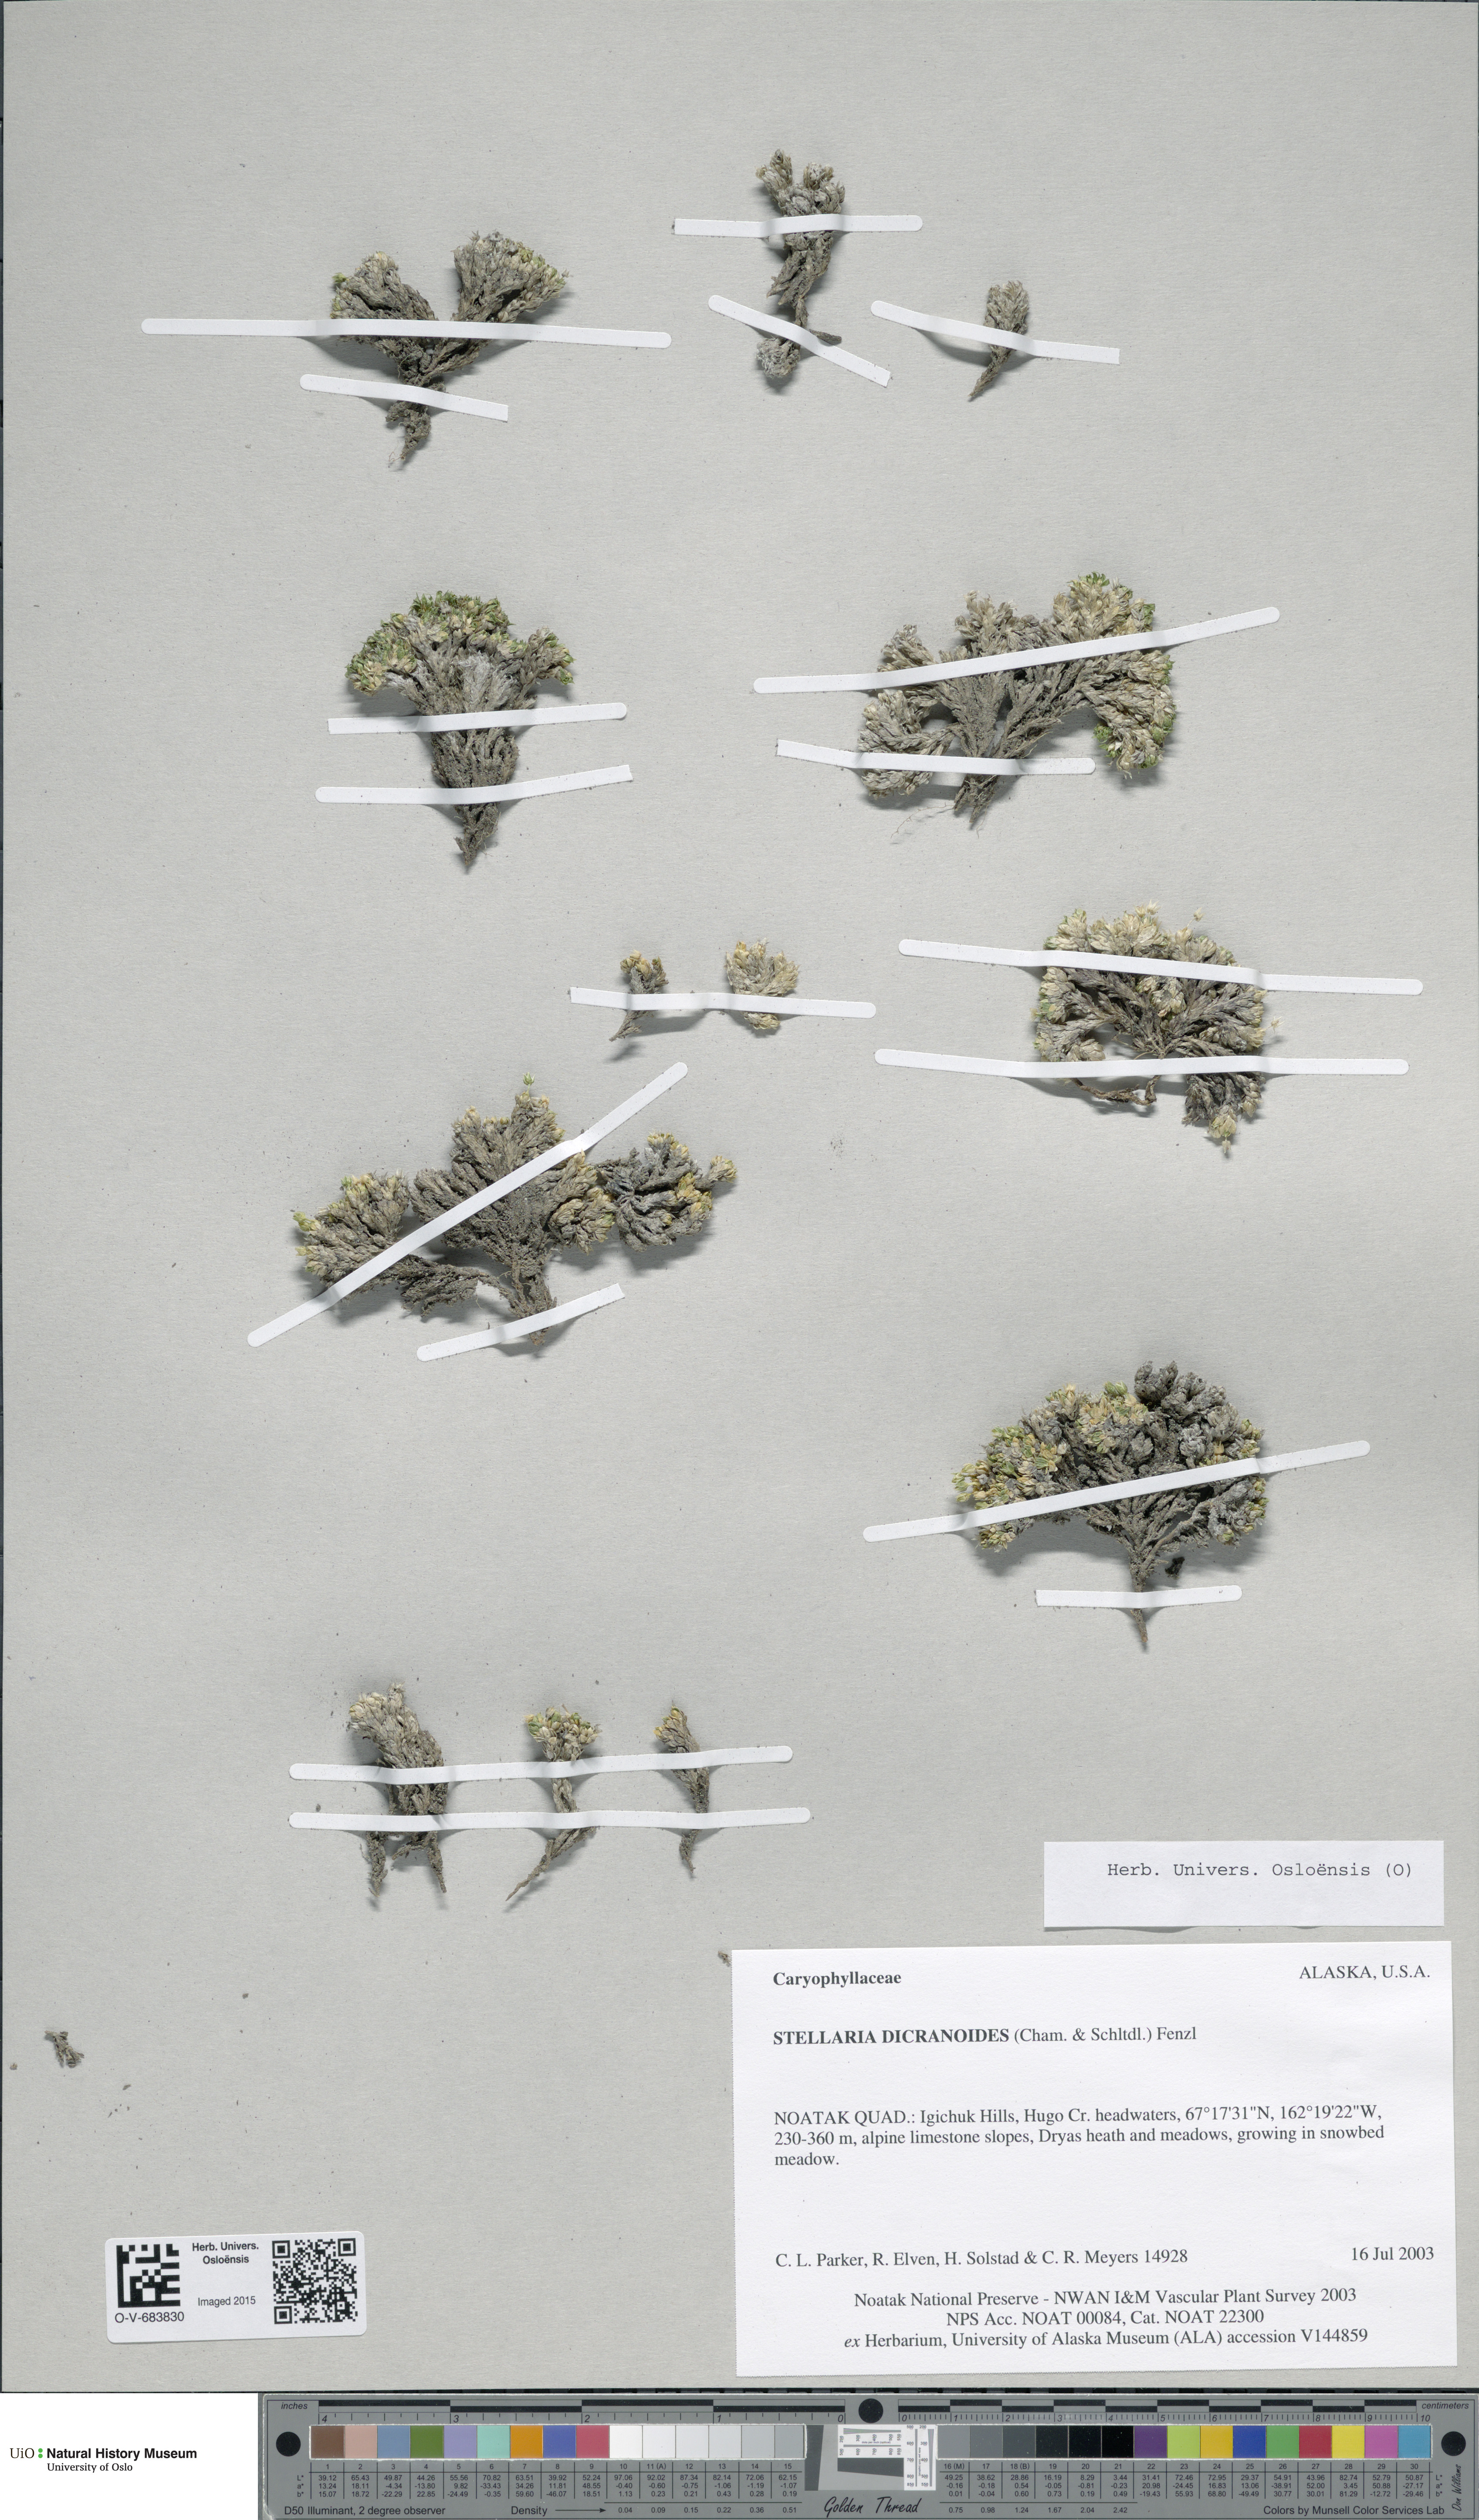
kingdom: Plantae
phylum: Tracheophyta
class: Magnoliopsida
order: Caryophyllales
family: Caryophyllaceae
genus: Stellaria
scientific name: Stellaria dicranoides
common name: Chamisso's starwort
